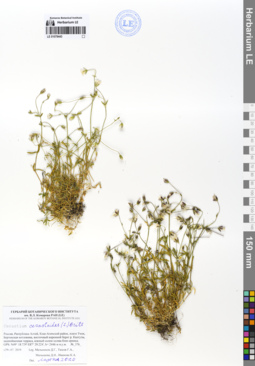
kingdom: Plantae
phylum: Tracheophyta
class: Magnoliopsida
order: Caryophyllales
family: Caryophyllaceae
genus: Dichodon
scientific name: Dichodon cerastoides
